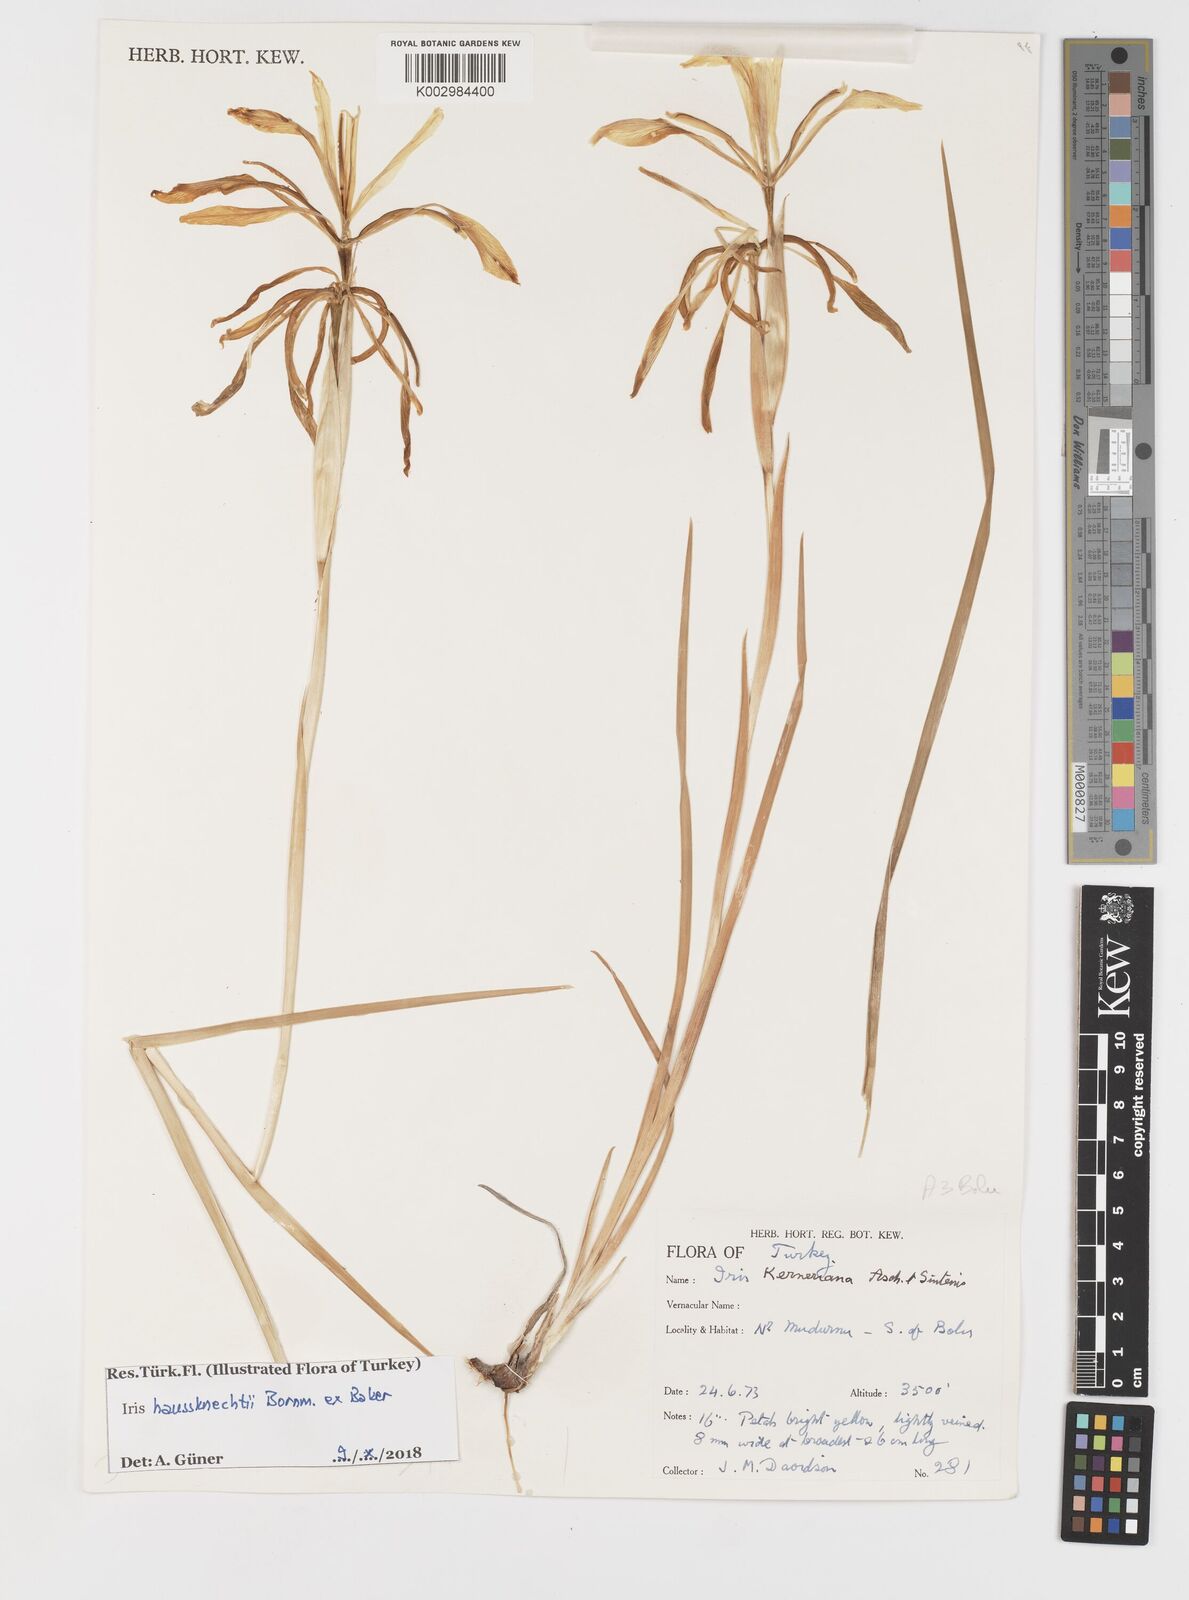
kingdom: Plantae
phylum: Tracheophyta
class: Liliopsida
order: Asparagales
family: Iridaceae
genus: Iris
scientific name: Iris haussknechtii
